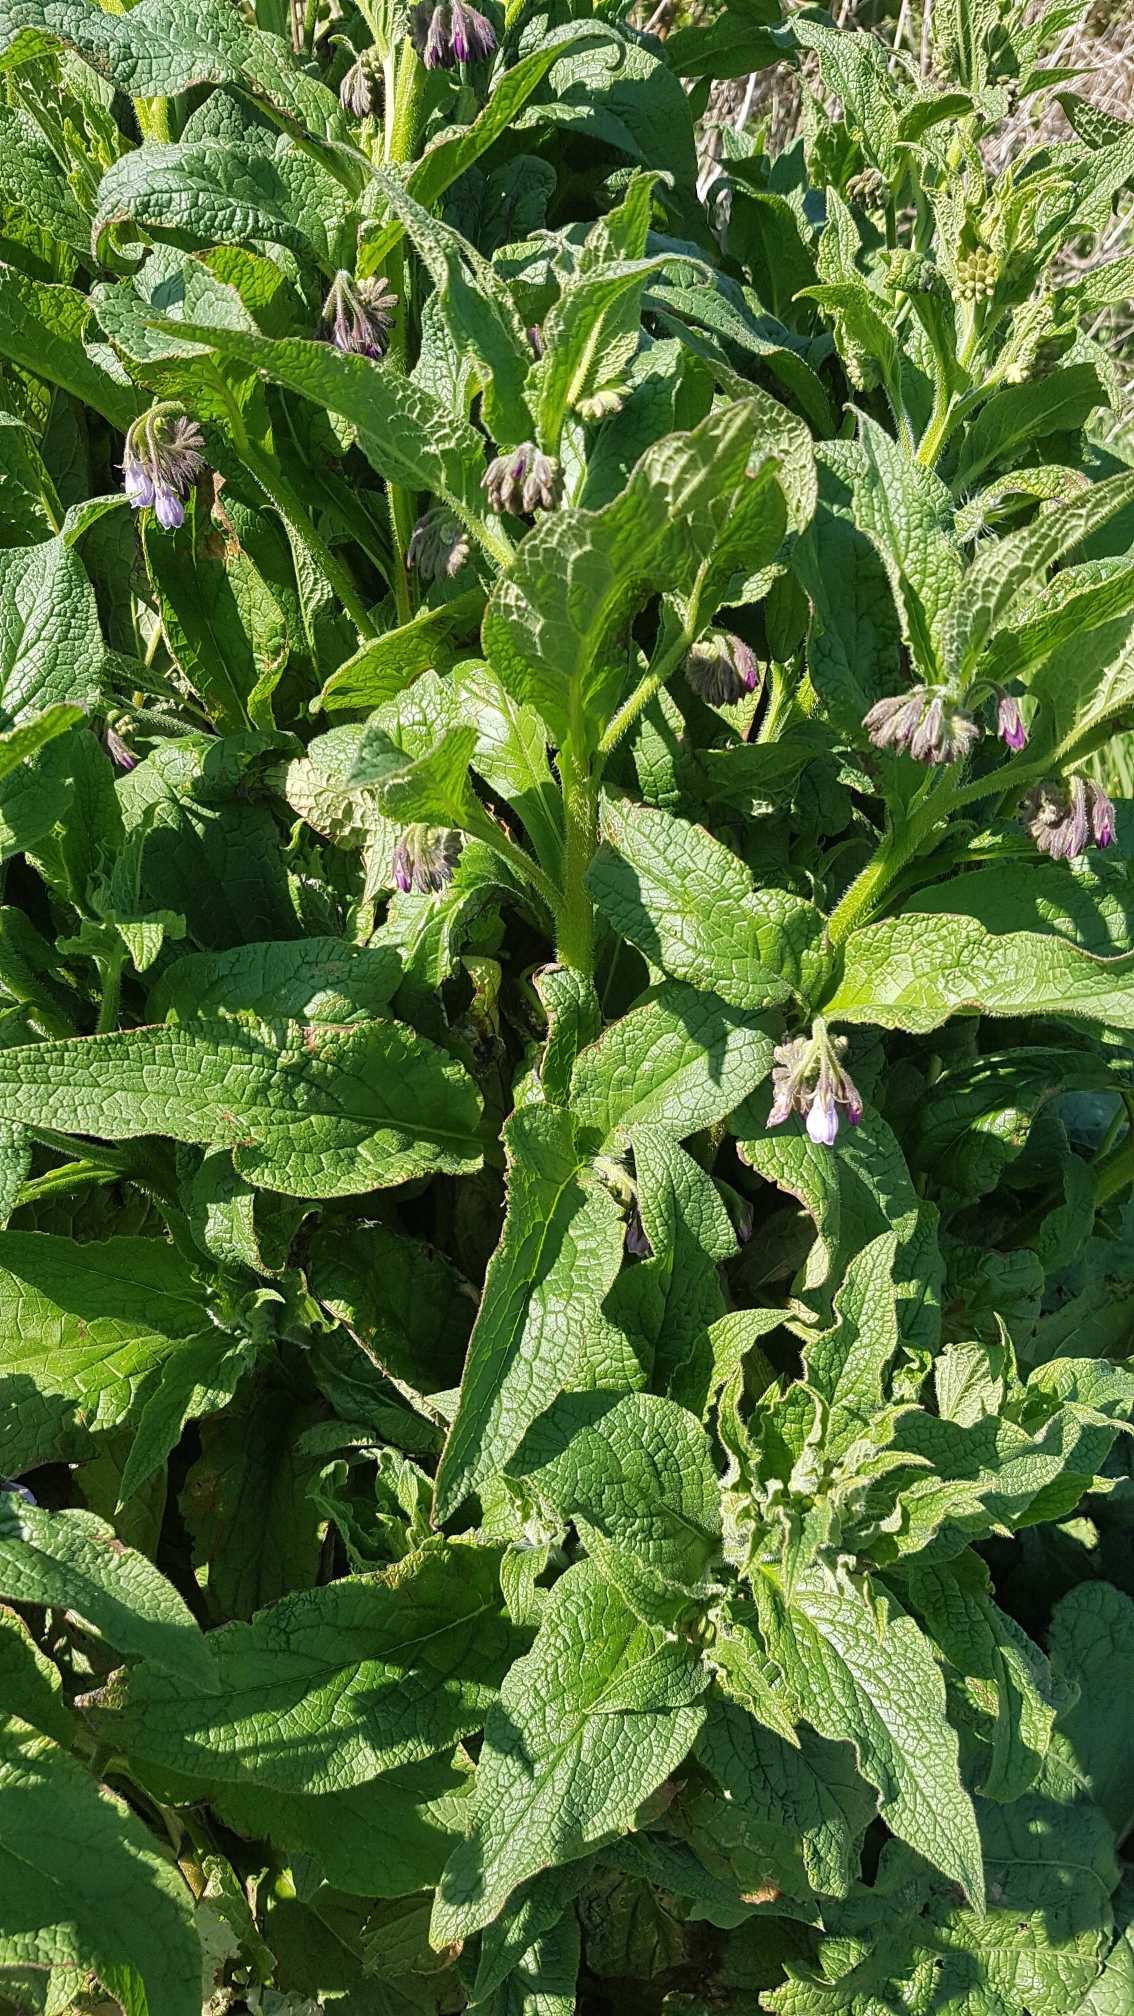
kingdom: Plantae
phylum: Tracheophyta
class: Magnoliopsida
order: Boraginales
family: Boraginaceae
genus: Symphytum
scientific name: Symphytum uplandicum
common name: Foder-kulsukker
